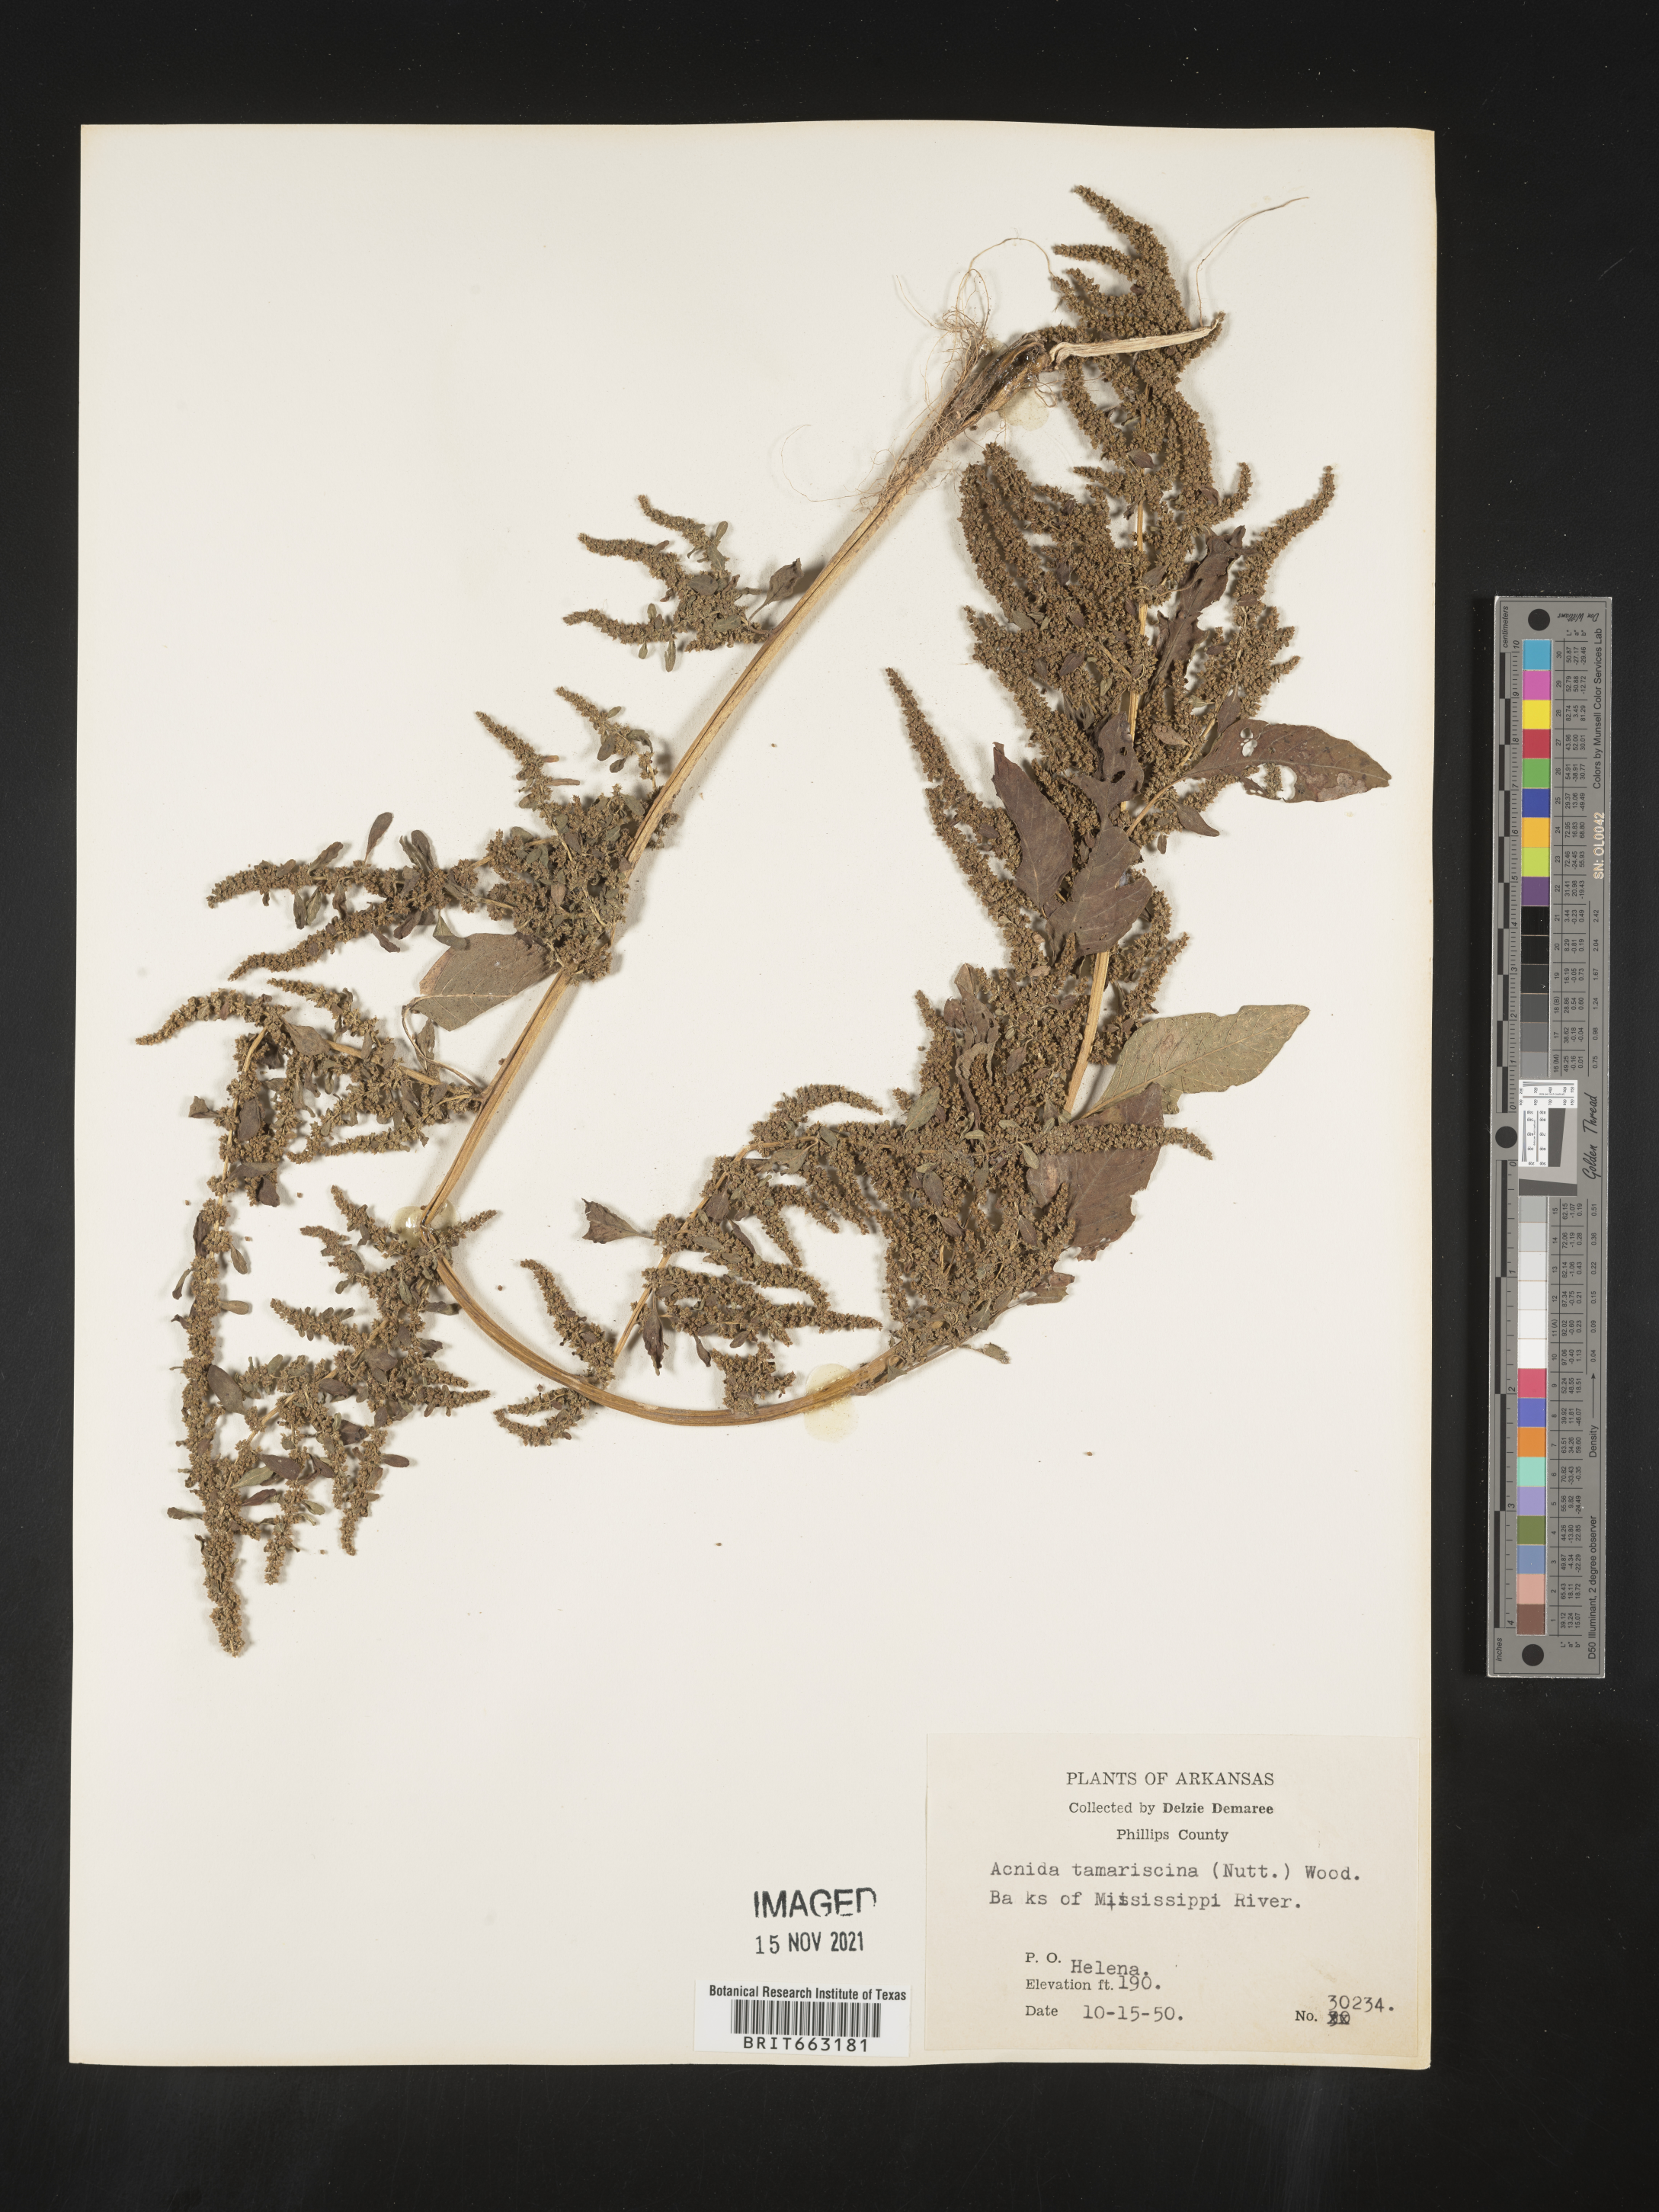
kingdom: Plantae
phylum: Tracheophyta
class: Magnoliopsida
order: Caryophyllales
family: Amaranthaceae
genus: Amaranthus
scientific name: Amaranthus tamariscinus
